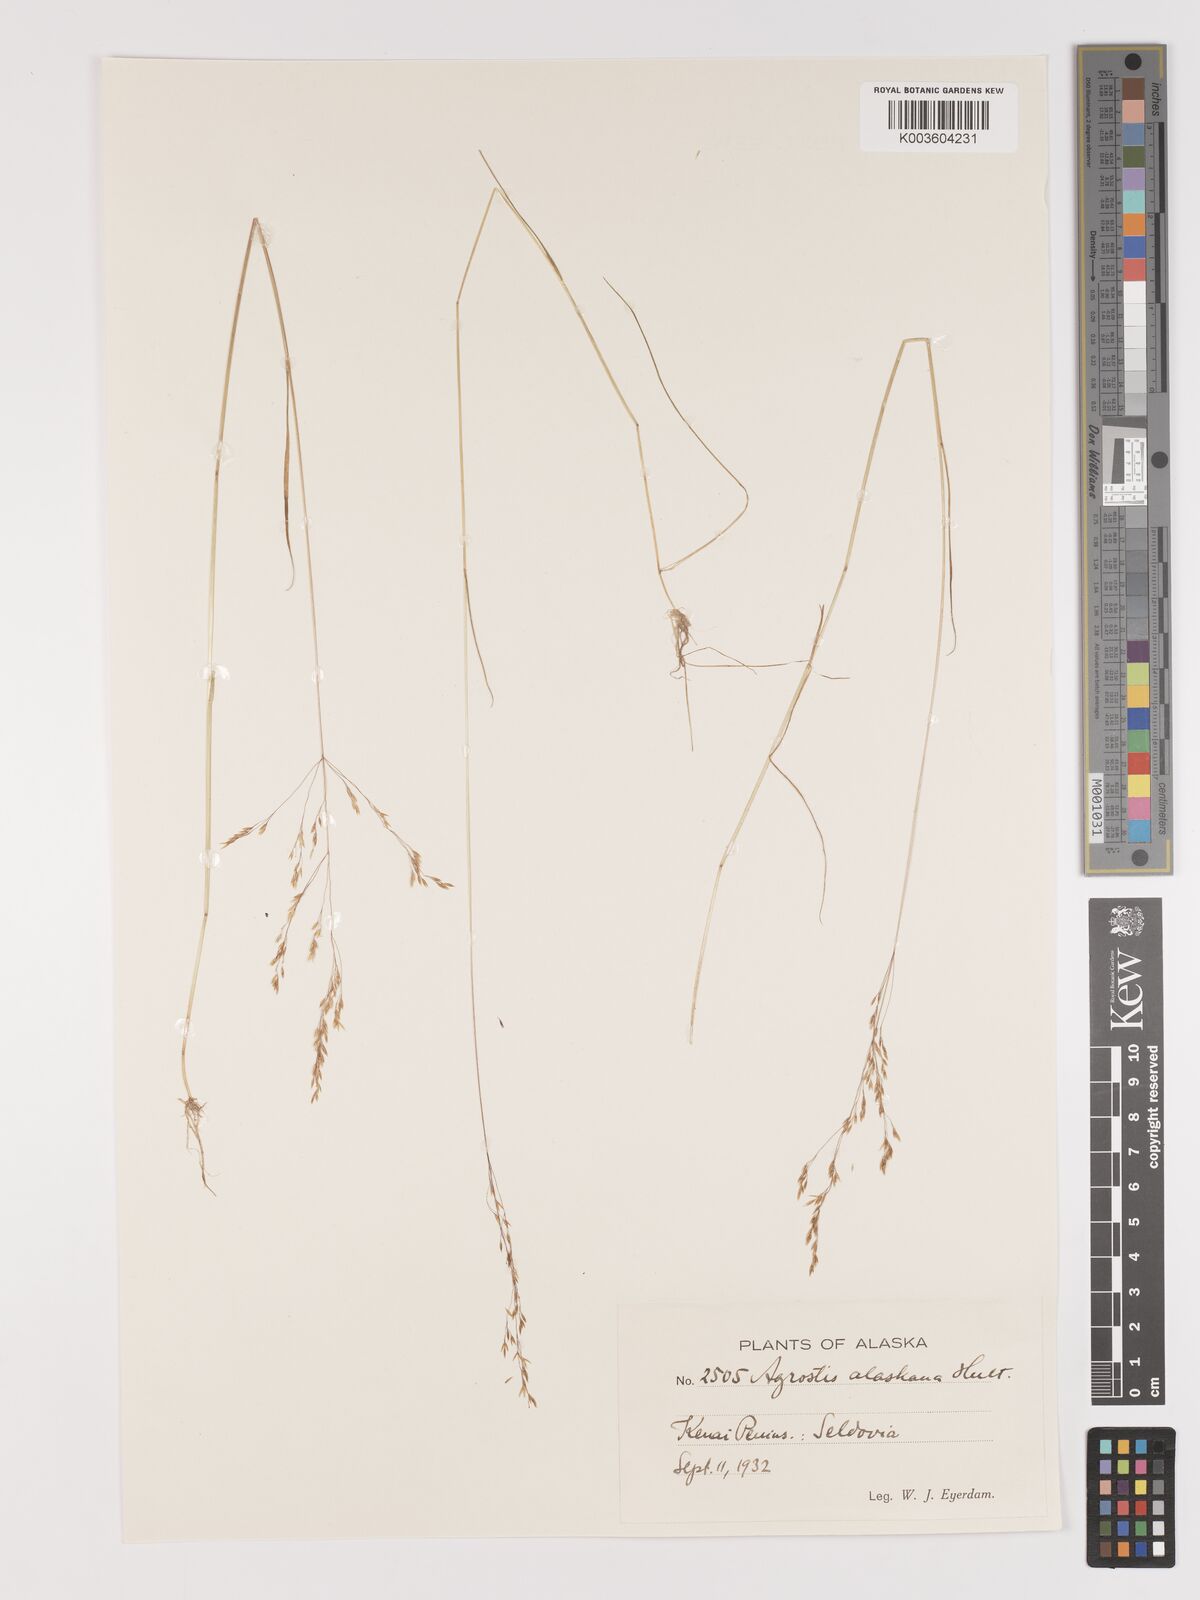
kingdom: Plantae
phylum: Tracheophyta
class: Liliopsida
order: Poales
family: Poaceae
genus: Agrostis
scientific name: Agrostis exarata
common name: Spike bent
